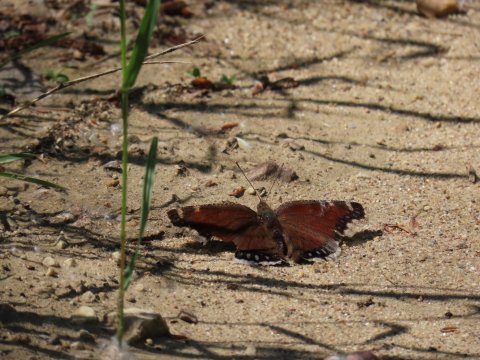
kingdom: Animalia
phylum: Arthropoda
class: Insecta
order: Lepidoptera
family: Nymphalidae
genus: Nymphalis
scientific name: Nymphalis antiopa
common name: Mourning Cloak
